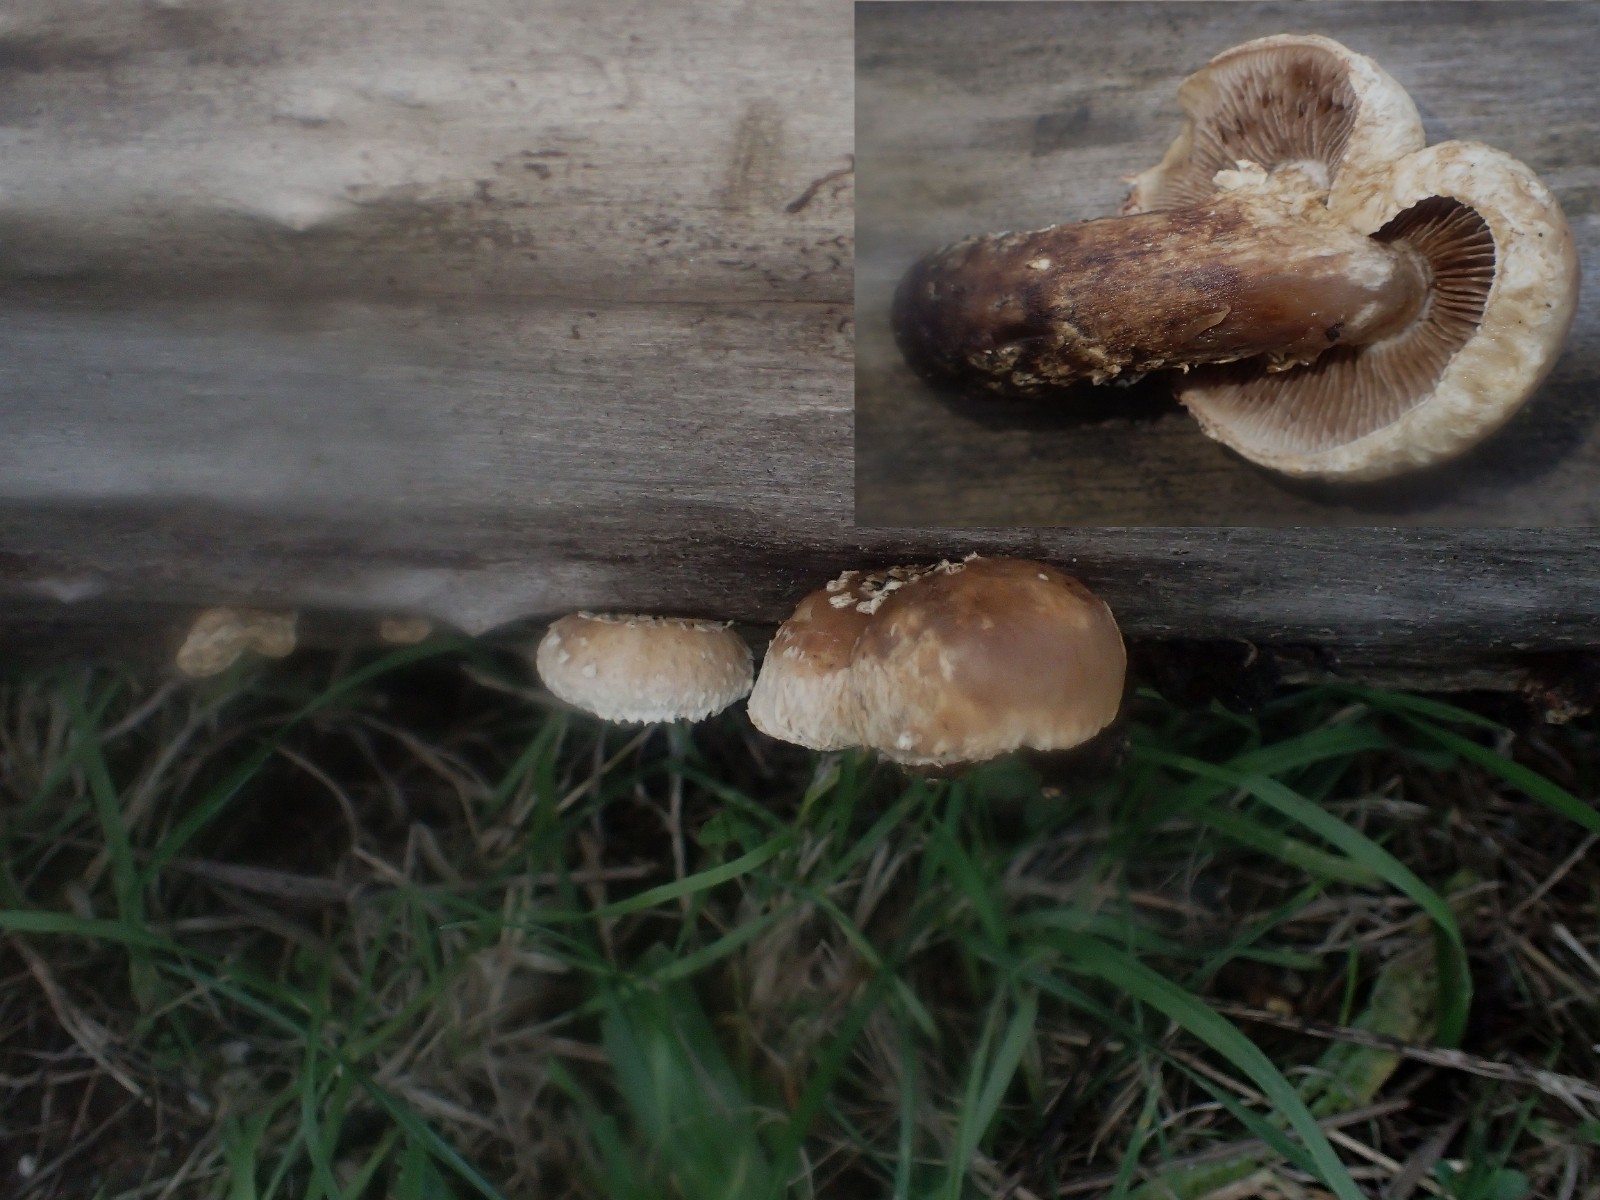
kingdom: Fungi
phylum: Basidiomycota
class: Agaricomycetes
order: Agaricales
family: Strophariaceae
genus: Pholiota
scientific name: Pholiota populnea
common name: poppel-kæmpeskælhat
